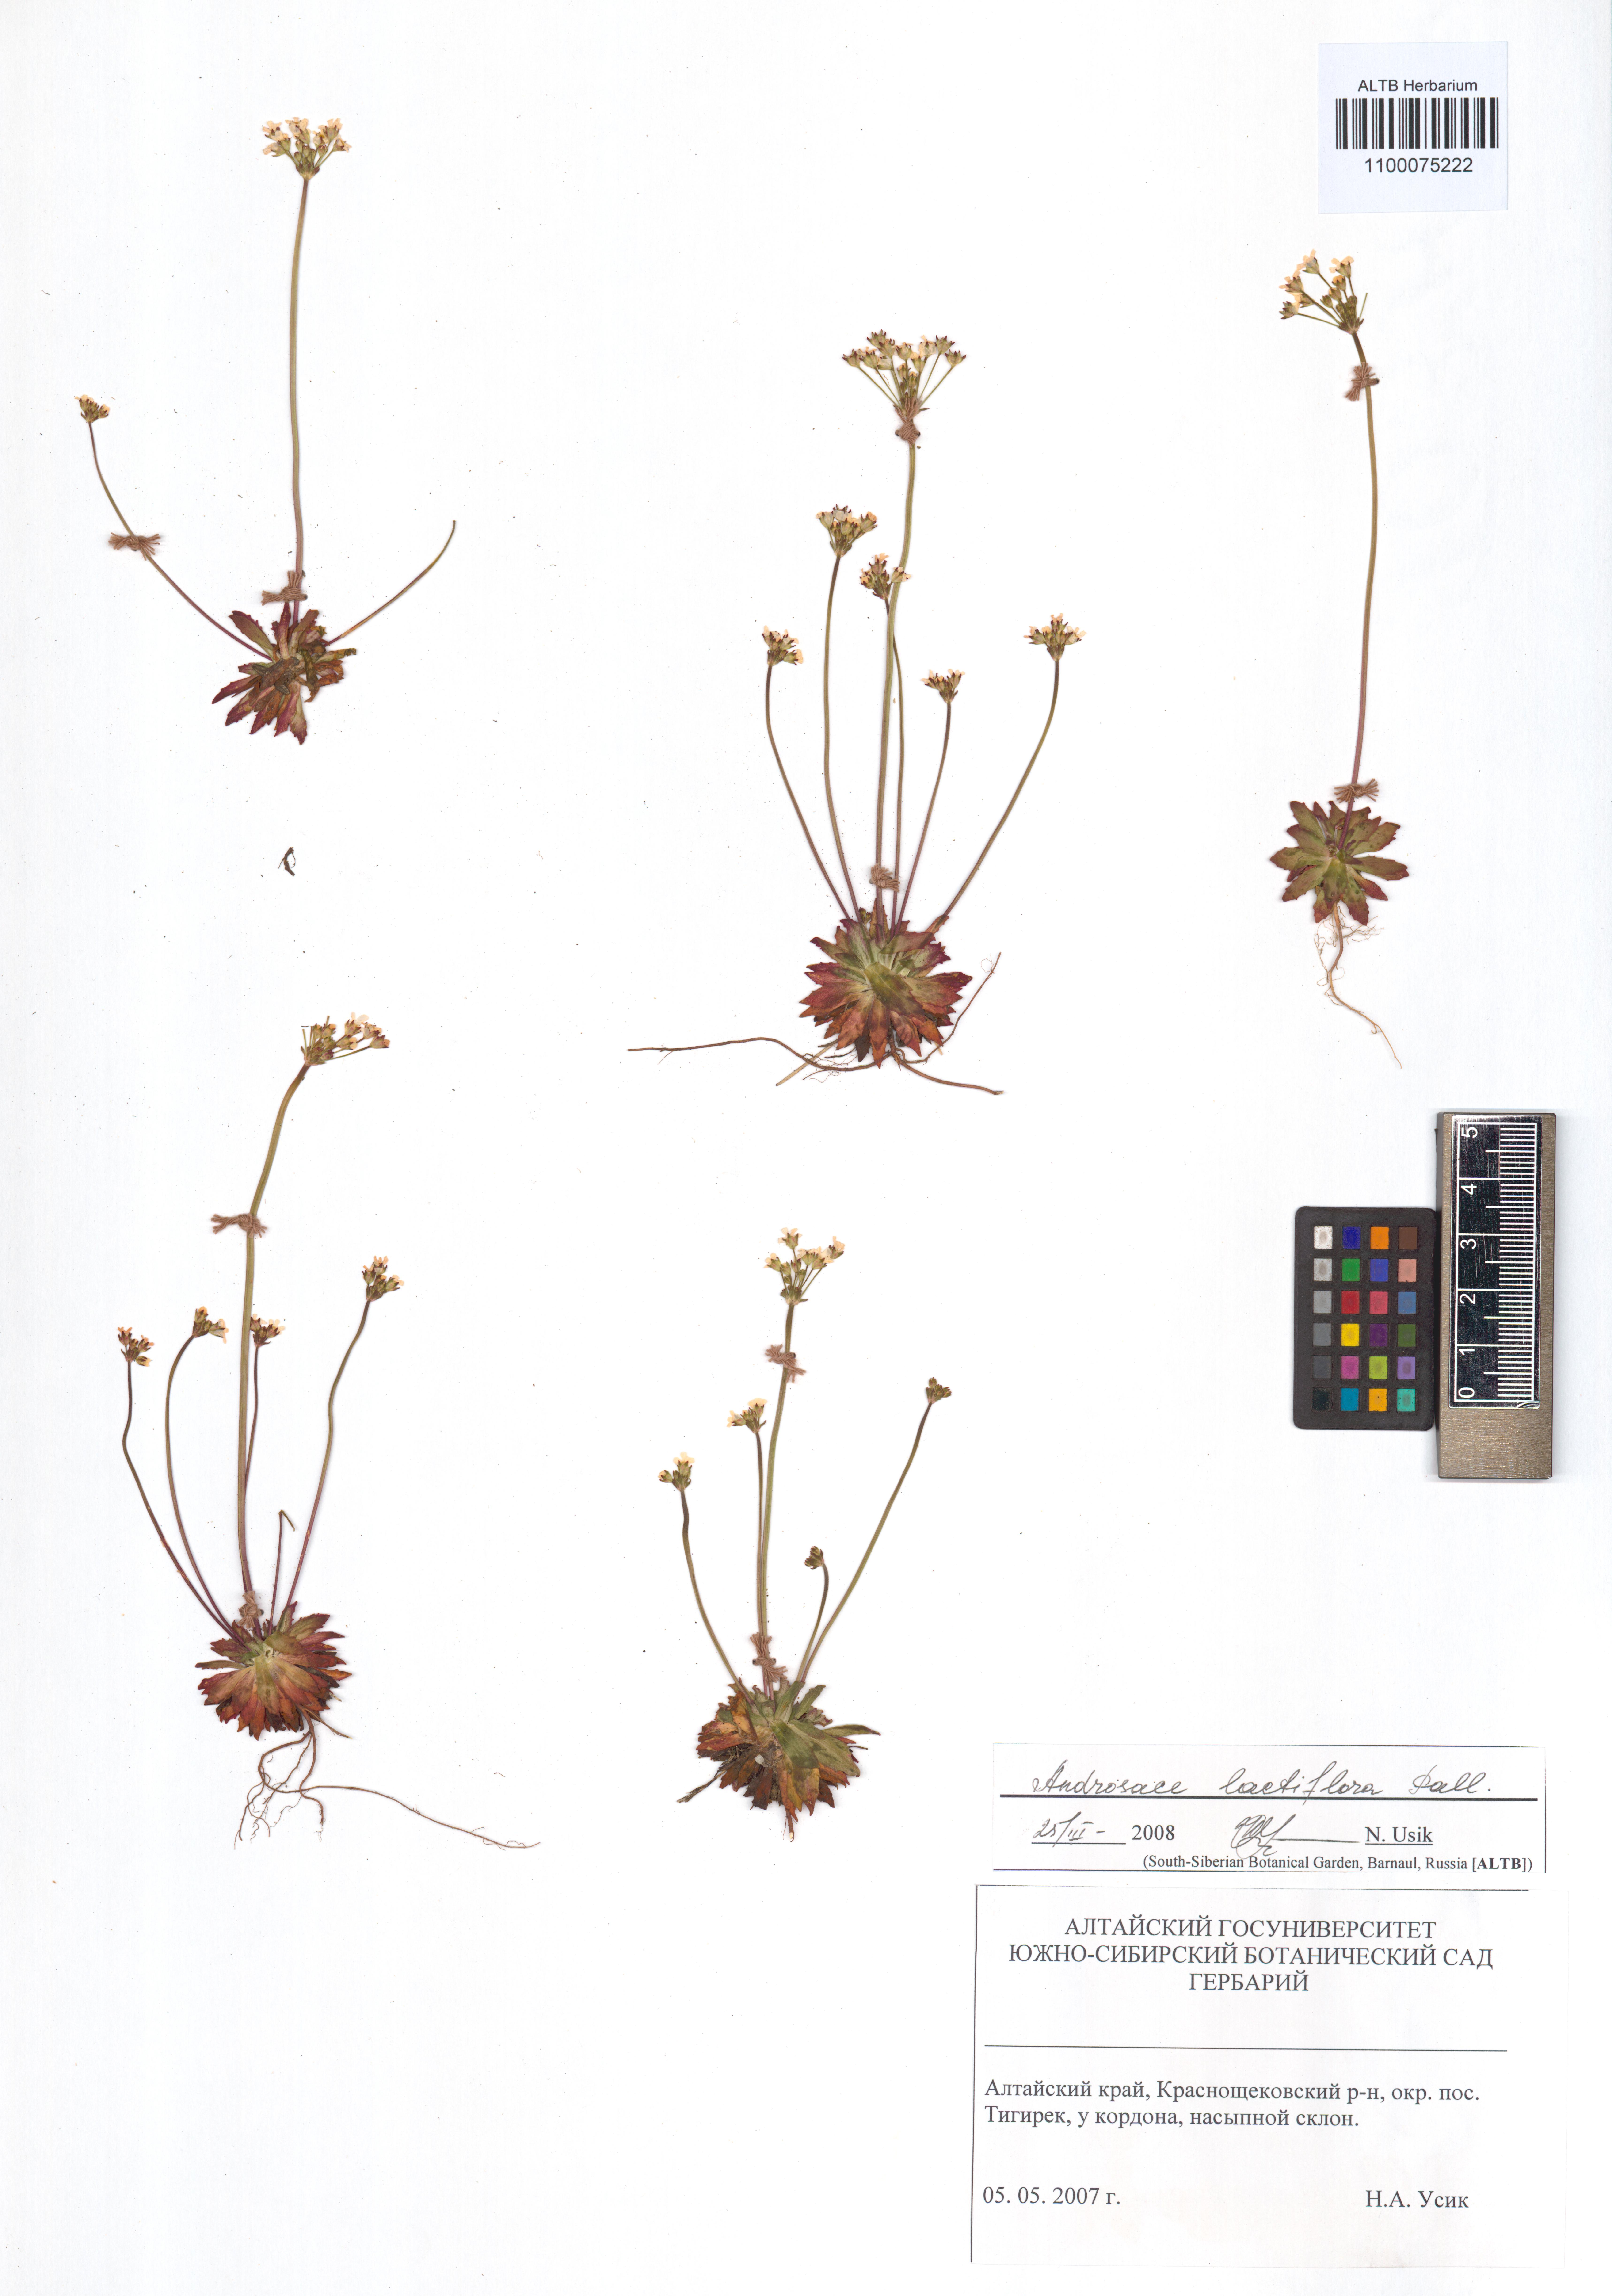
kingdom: Plantae
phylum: Tracheophyta
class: Magnoliopsida
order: Ericales
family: Primulaceae
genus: Androsace
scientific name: Androsace lactiflora
